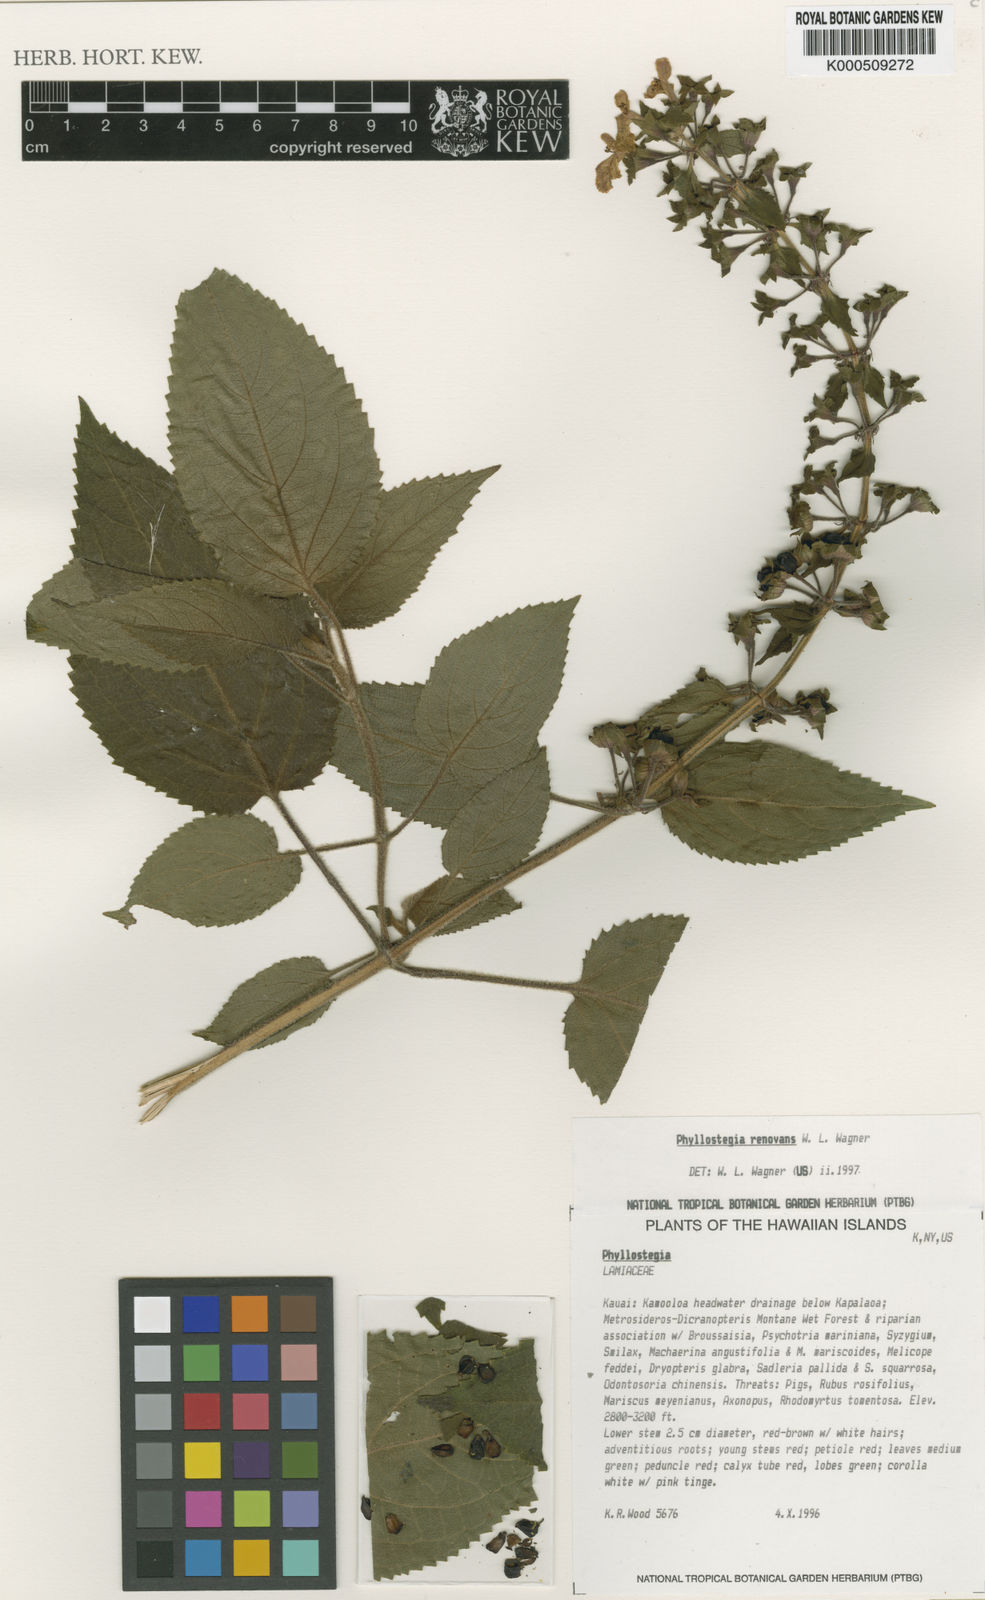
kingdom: Plantae
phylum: Tracheophyta
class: Magnoliopsida
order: Lamiales
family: Lamiaceae
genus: Phyllostegia
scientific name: Phyllostegia renovans
